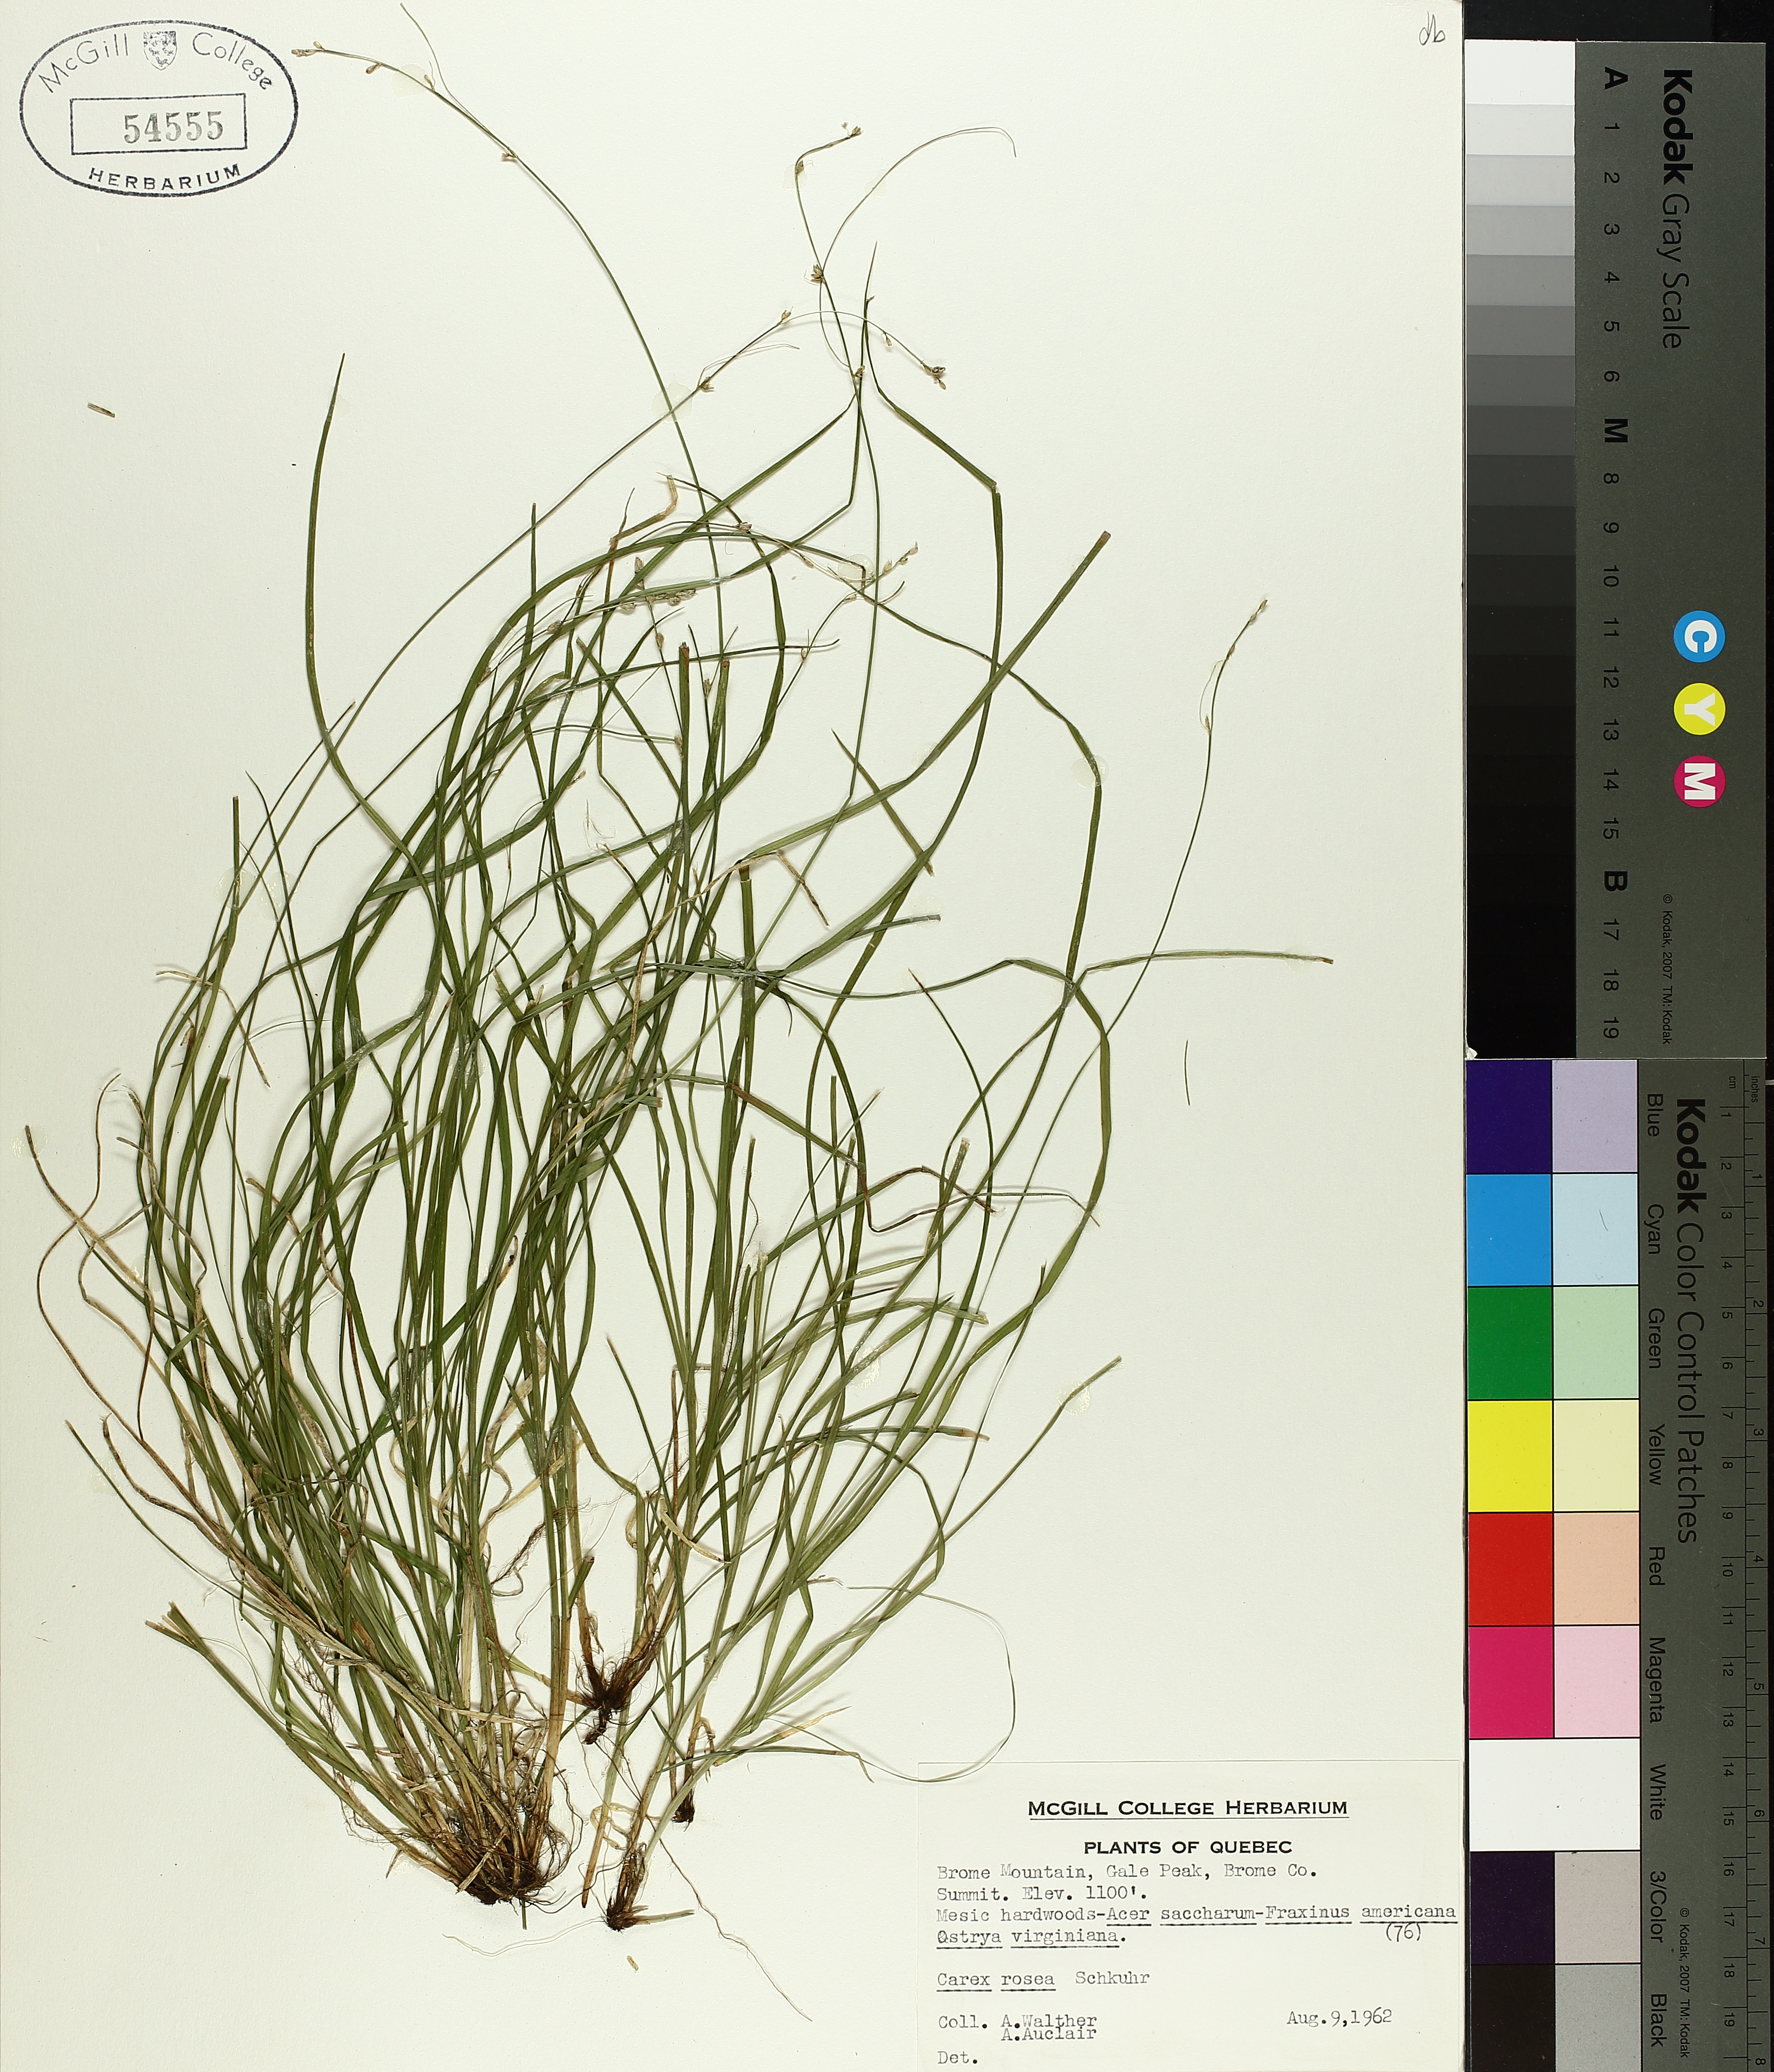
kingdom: Plantae
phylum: Tracheophyta
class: Liliopsida
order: Poales
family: Cyperaceae
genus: Carex
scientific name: Carex rosea
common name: Curly-styled wood sedge
